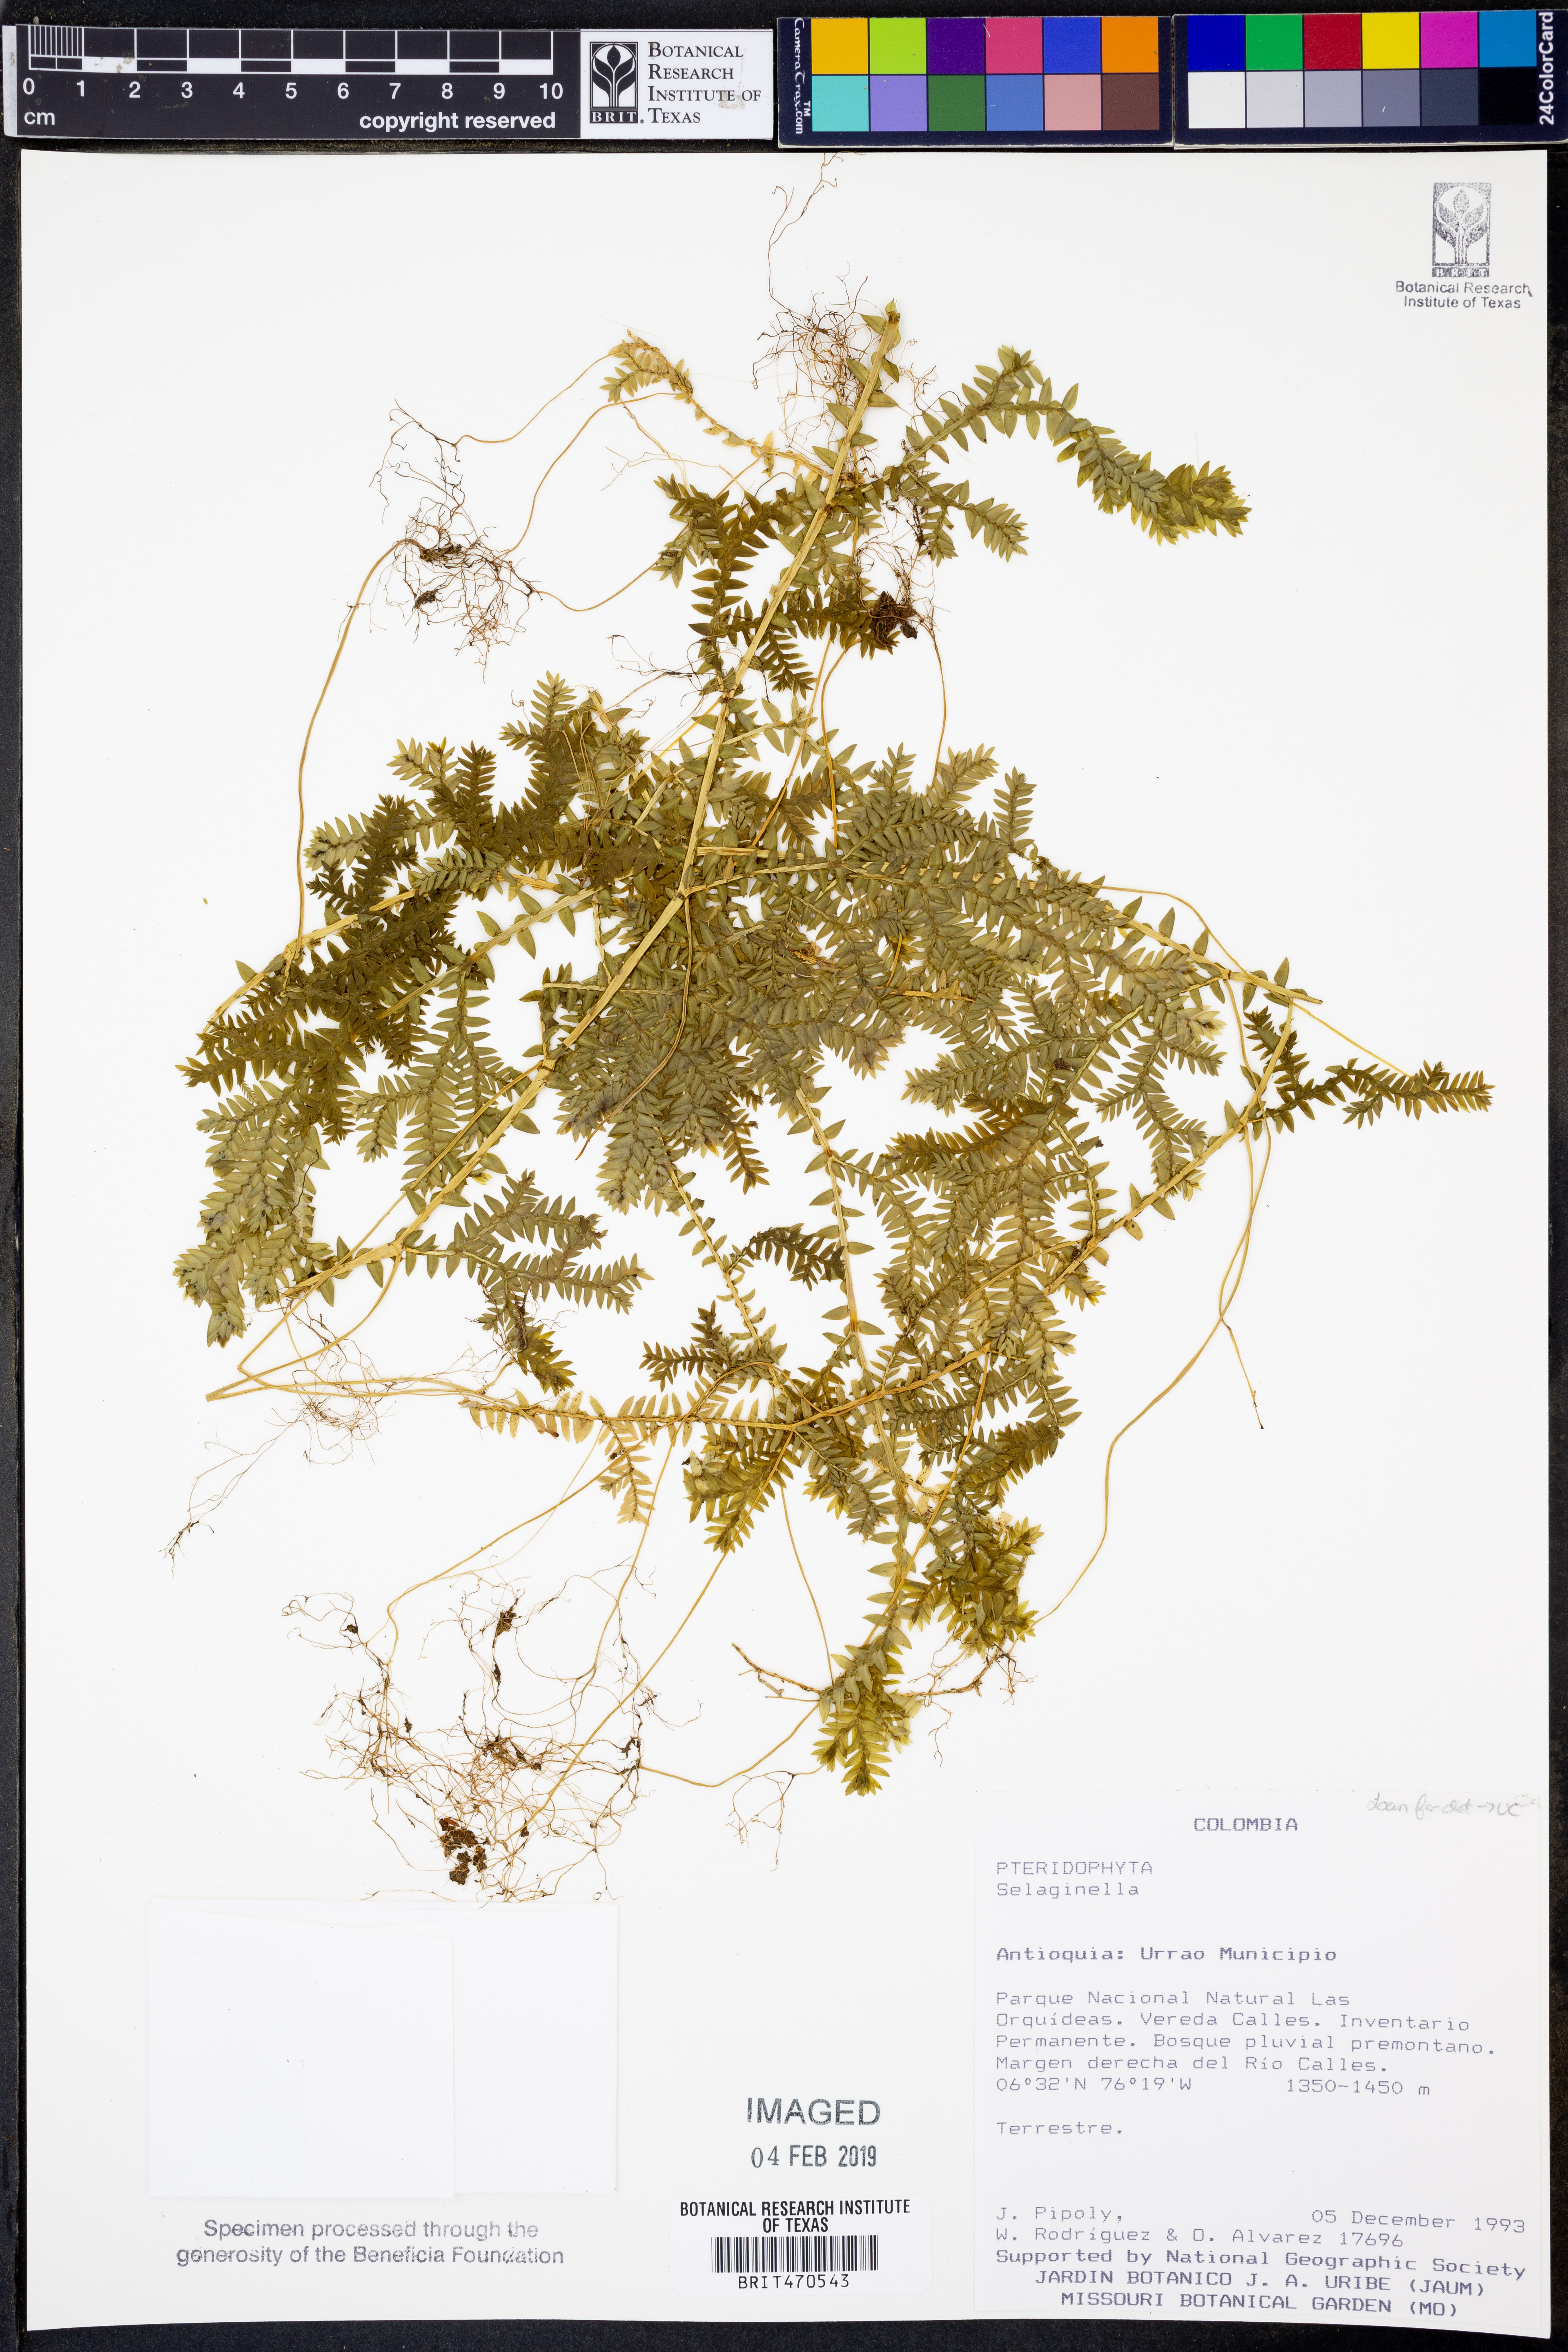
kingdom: Plantae
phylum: Tracheophyta
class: Lycopodiopsida
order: Selaginellales
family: Selaginellaceae
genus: Selaginella
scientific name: Selaginella diffusa
